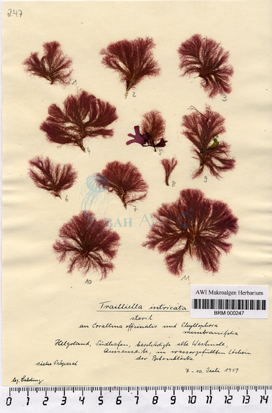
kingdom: Plantae
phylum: Rhodophyta
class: Florideophyceae
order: Bonnemaisoniales
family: Bonnemaisoniaceae
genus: Bonnemaisonia
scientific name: Bonnemaisonia hamifera
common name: Bonnemaison's hook weed
